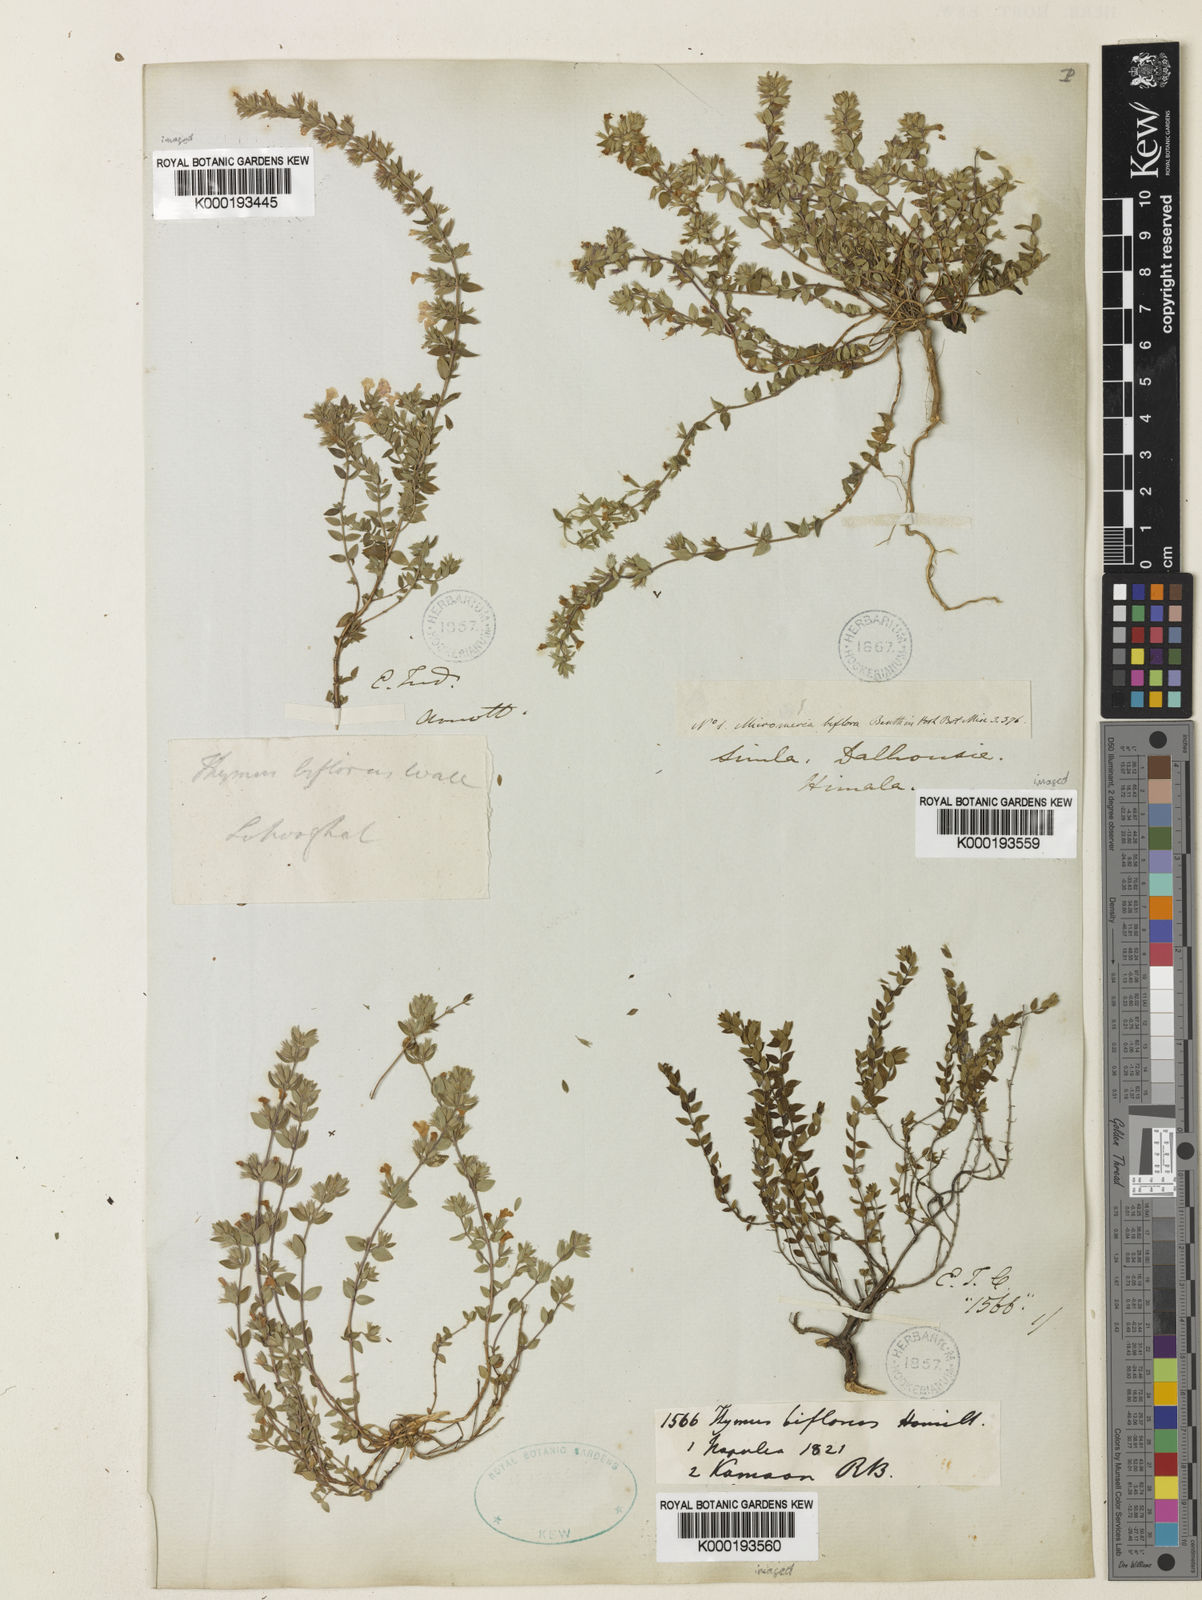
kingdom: Plantae
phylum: Tracheophyta
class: Magnoliopsida
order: Lamiales
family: Lamiaceae
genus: Micromeria
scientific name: Micromeria biflora
